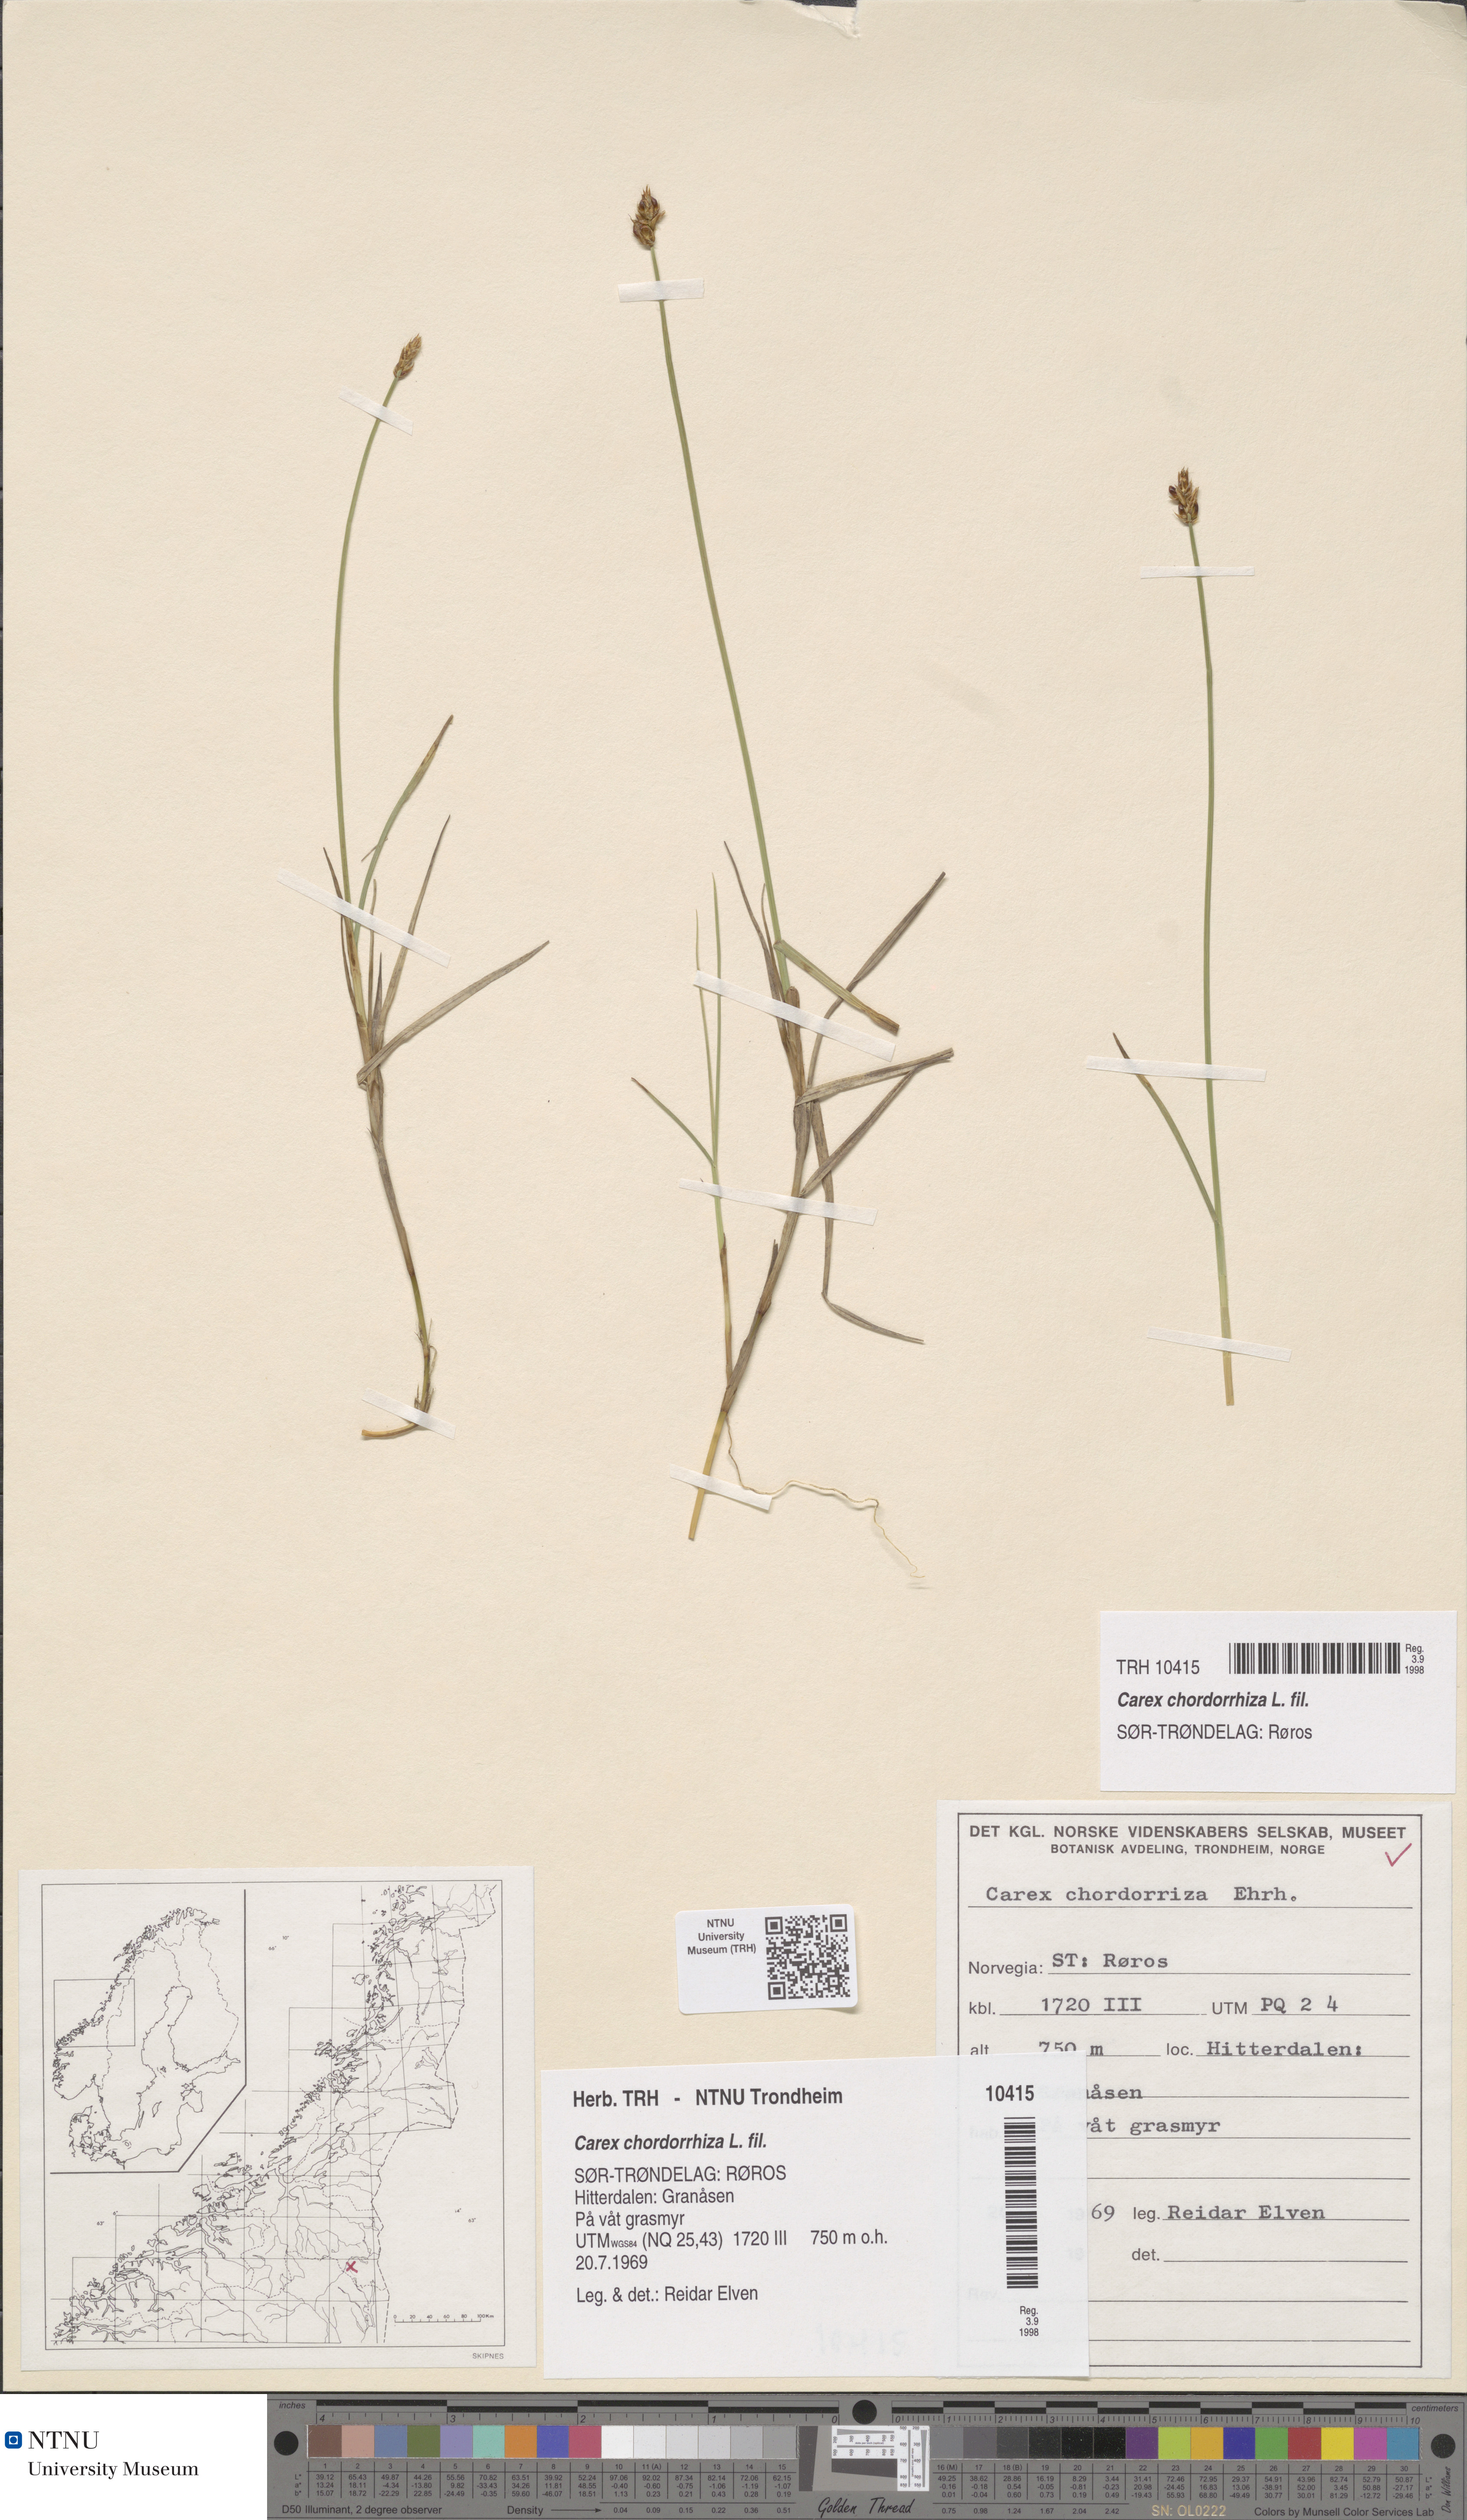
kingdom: Plantae
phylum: Tracheophyta
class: Liliopsida
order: Poales
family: Cyperaceae
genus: Carex
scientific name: Carex chordorrhiza
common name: String sedge
